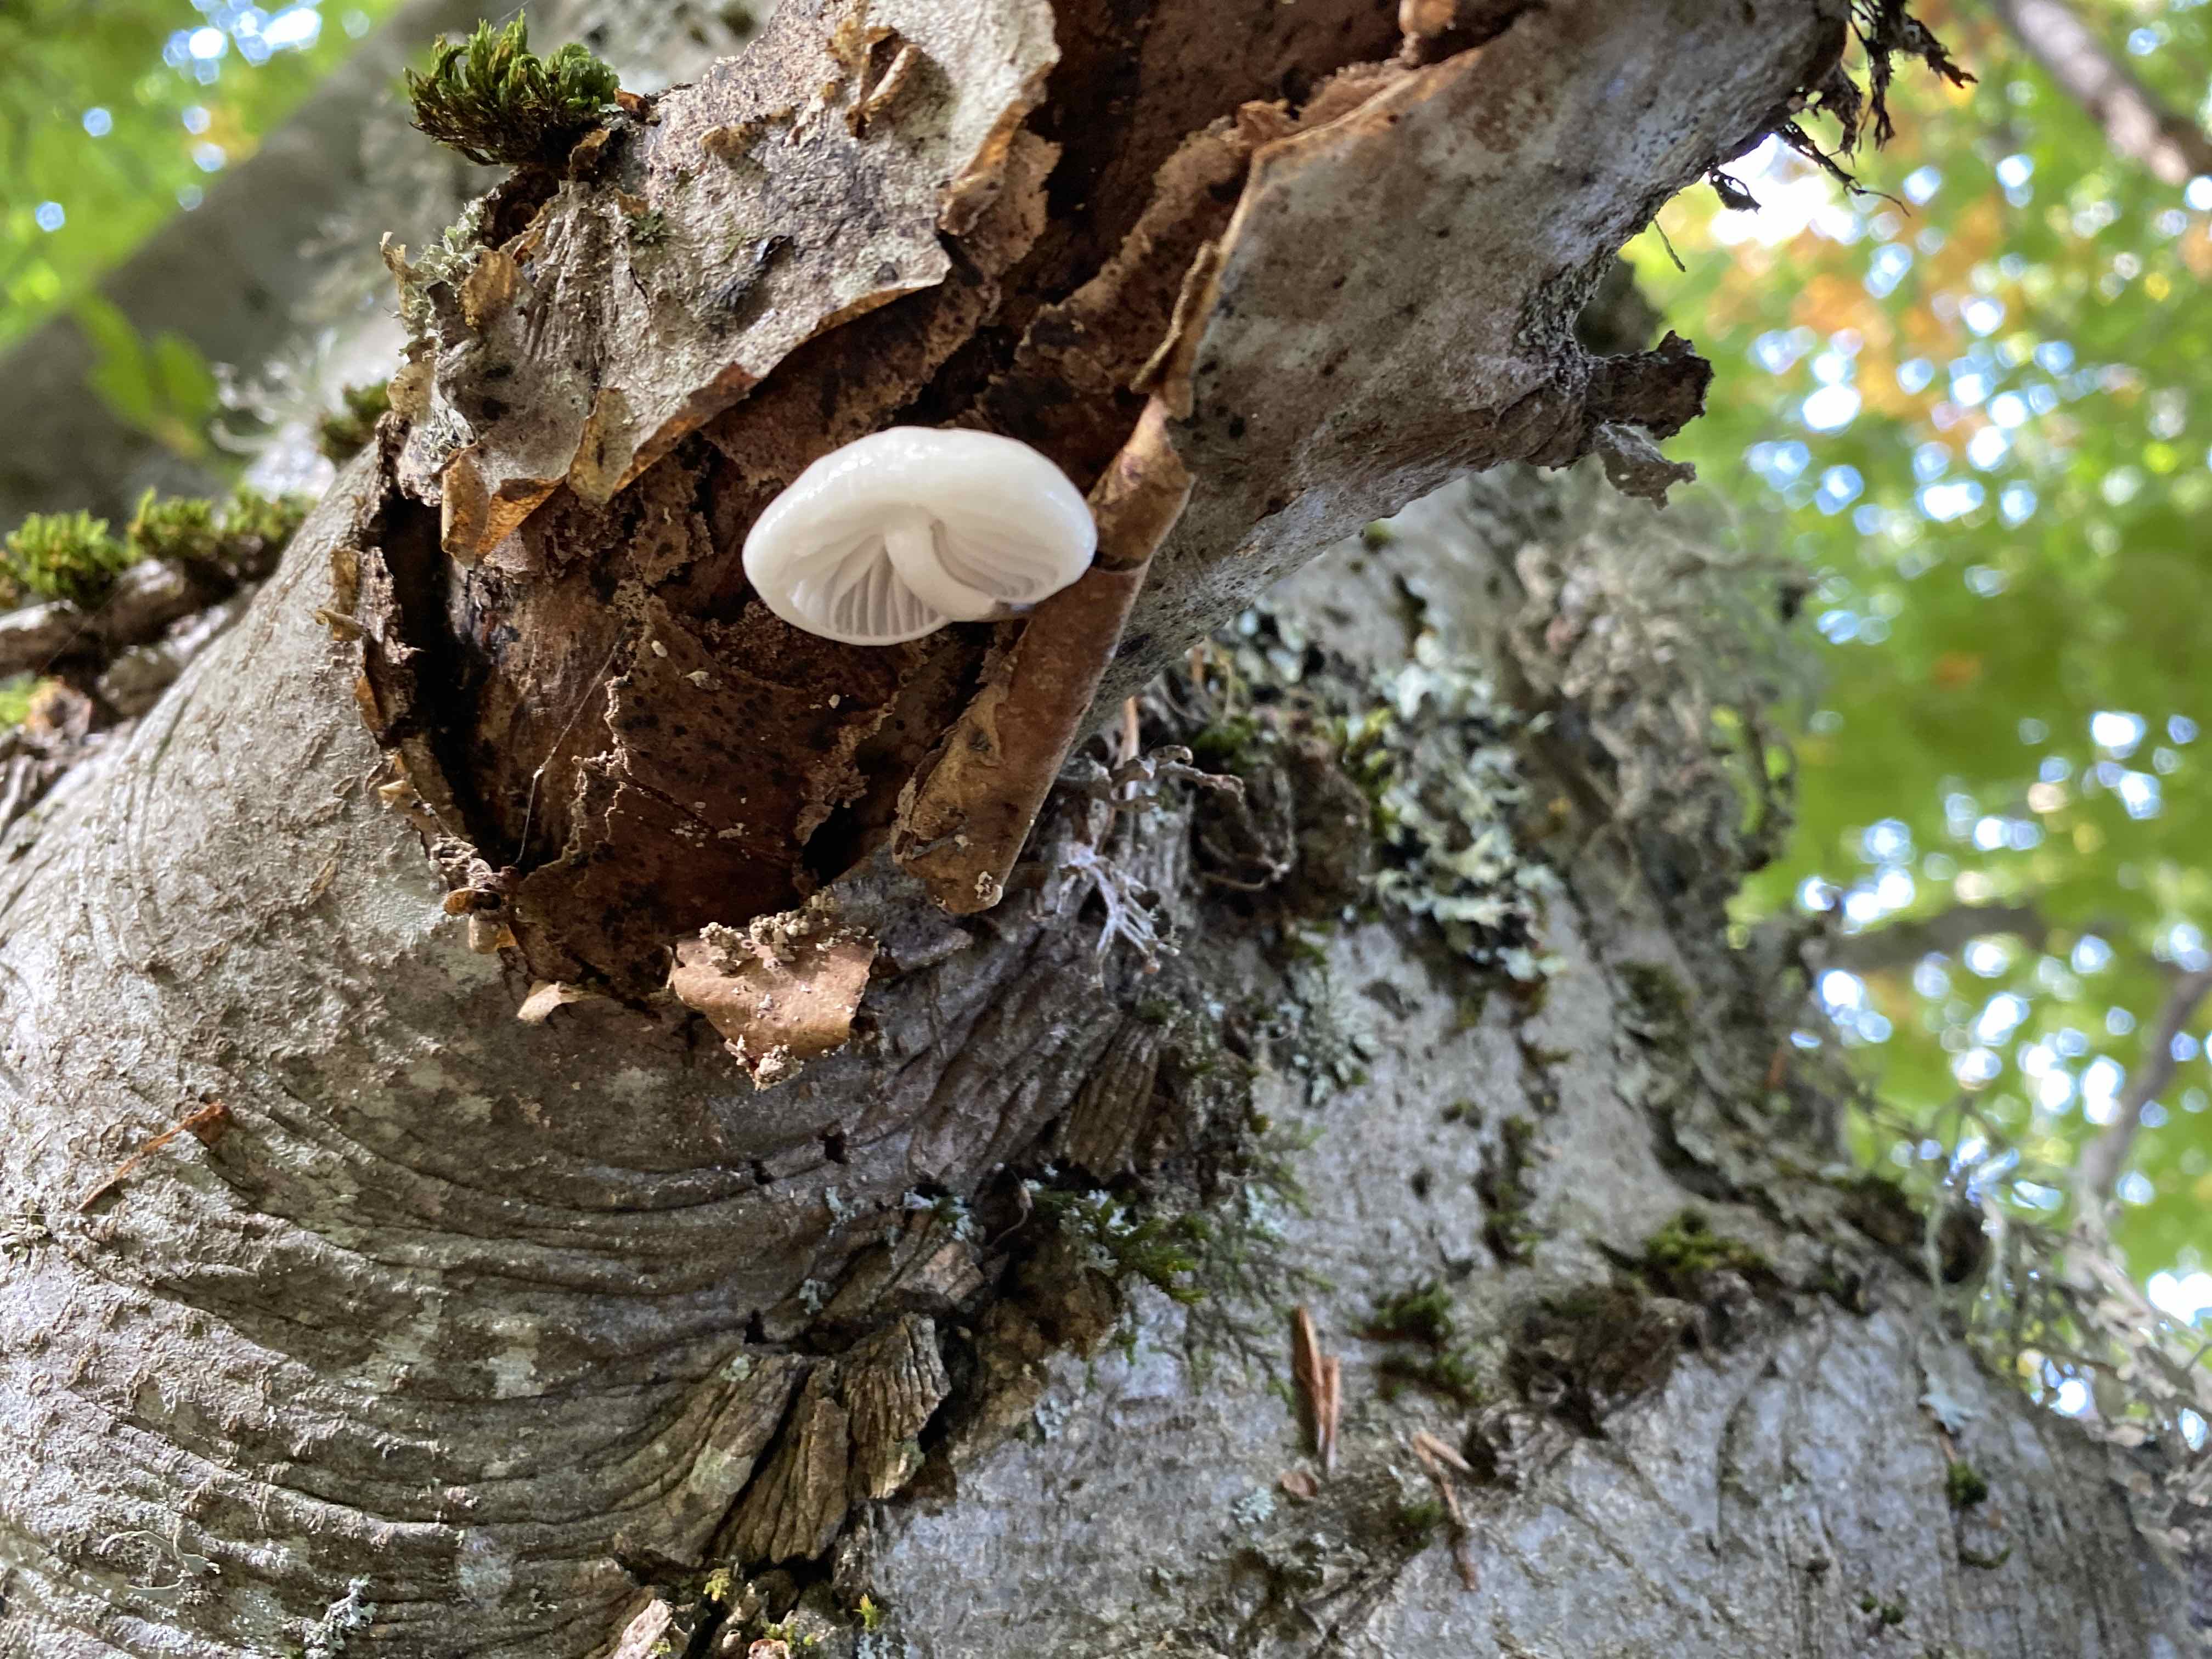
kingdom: Fungi
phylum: Basidiomycota
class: Agaricomycetes
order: Agaricales
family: Physalacriaceae
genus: Mucidula
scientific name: Mucidula mucida
